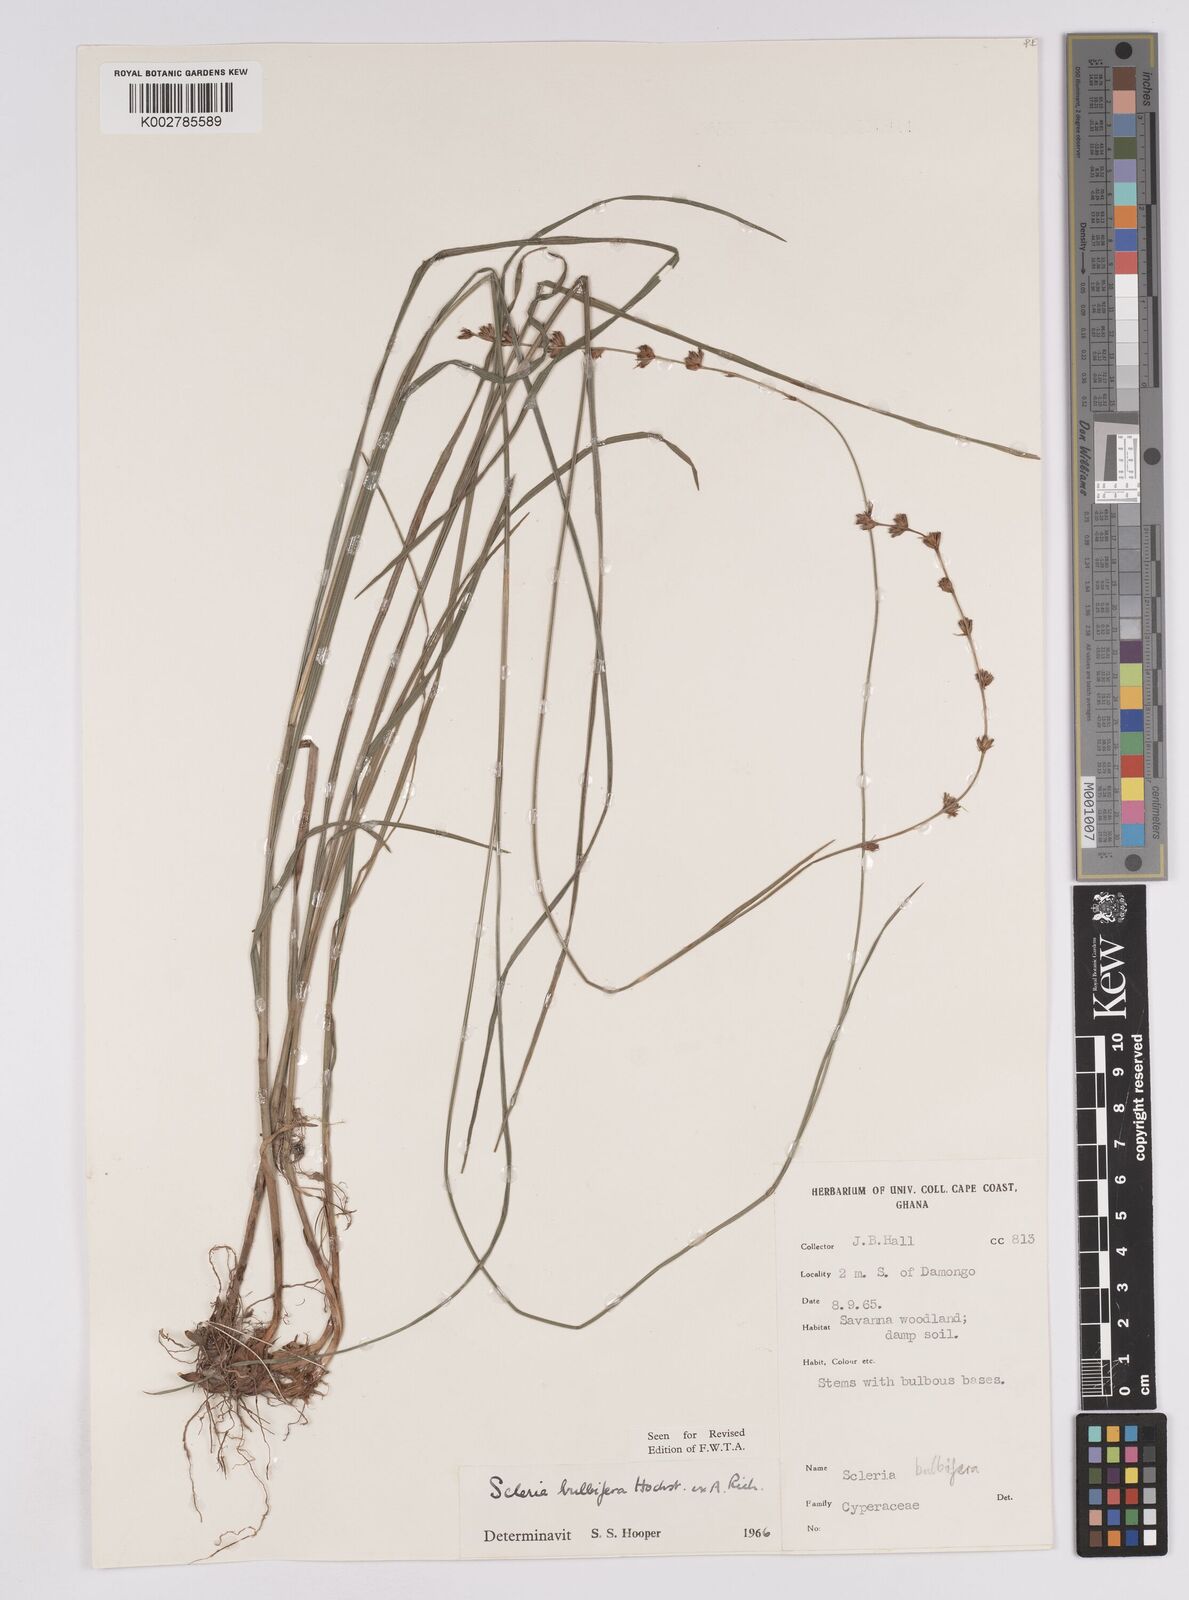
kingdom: Plantae
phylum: Tracheophyta
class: Liliopsida
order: Poales
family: Cyperaceae
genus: Scleria
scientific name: Scleria bulbifera
